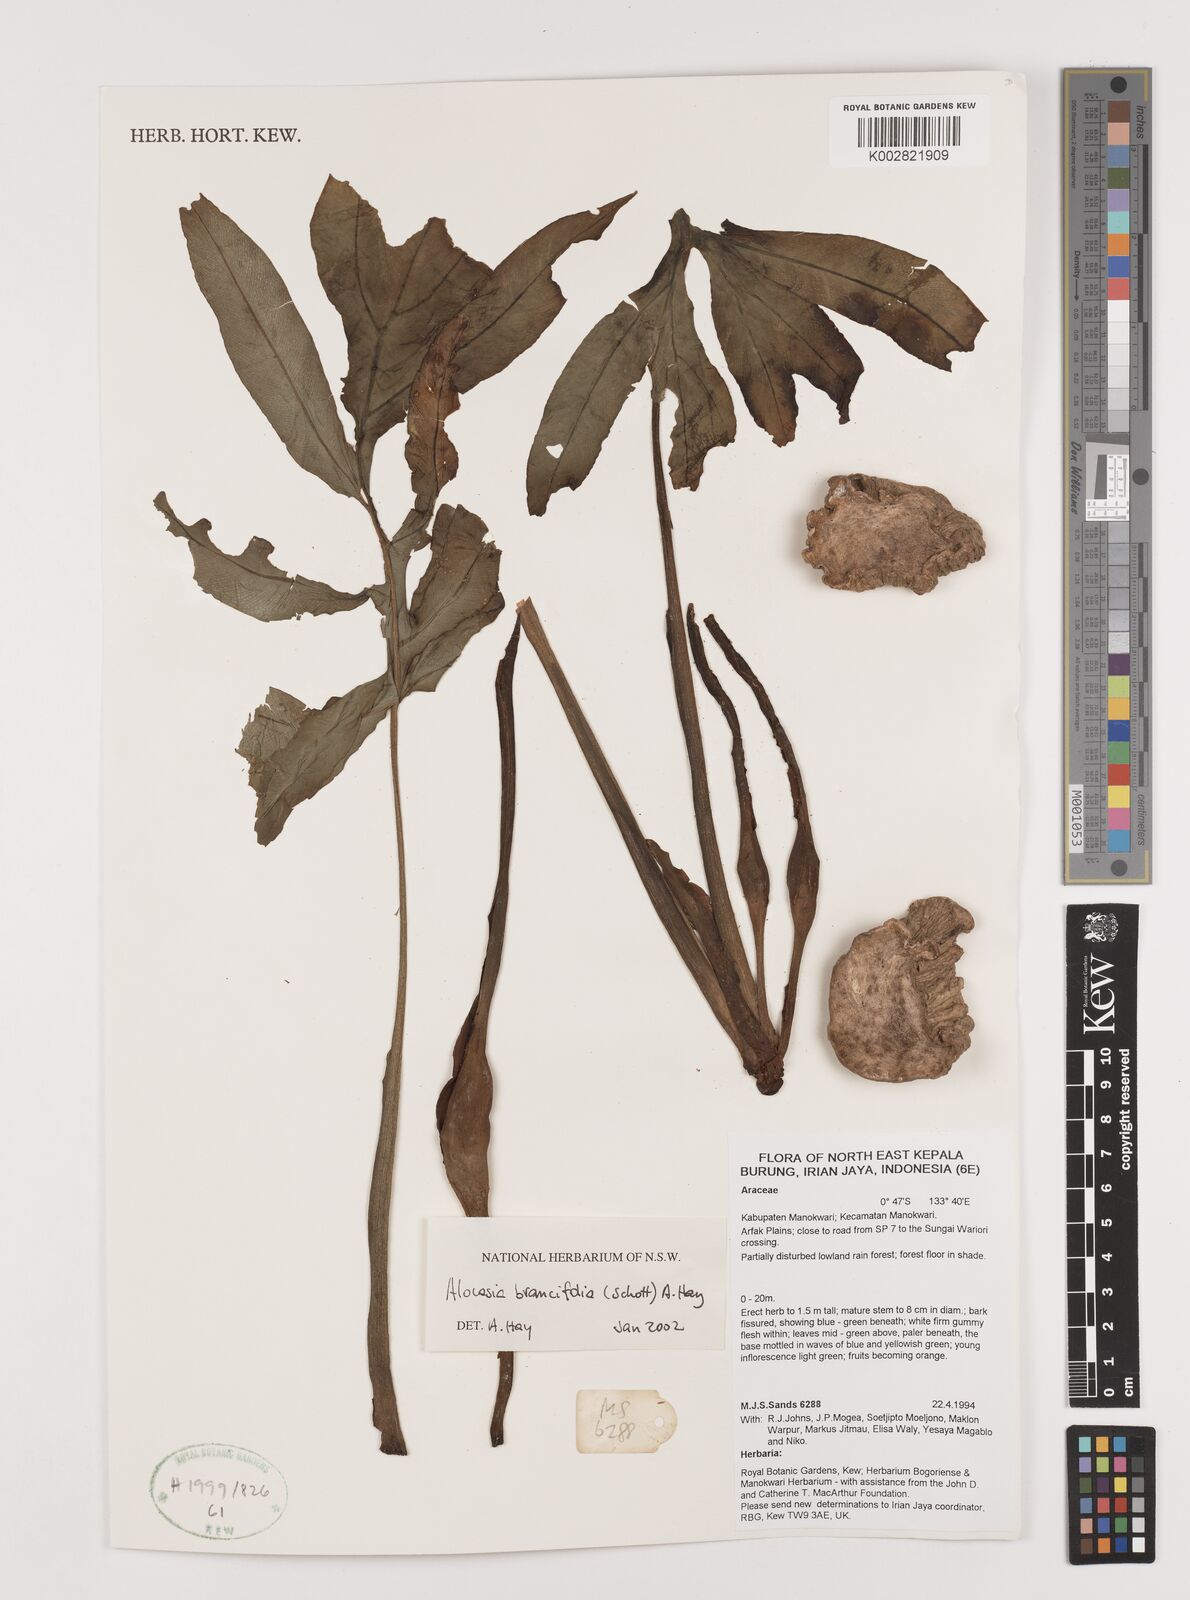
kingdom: Plantae
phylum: Tracheophyta
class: Liliopsida
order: Alismatales
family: Araceae
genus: Alocasia
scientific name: Alocasia brancifolia
